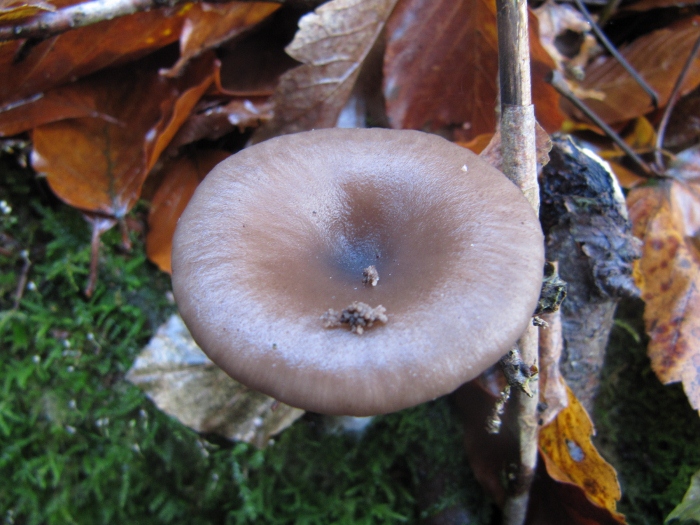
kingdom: Fungi
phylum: Basidiomycota
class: Agaricomycetes
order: Agaricales
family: Pseudoclitocybaceae
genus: Pseudoclitocybe
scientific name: Pseudoclitocybe cyathiformis
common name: almindelig bægertragthat
